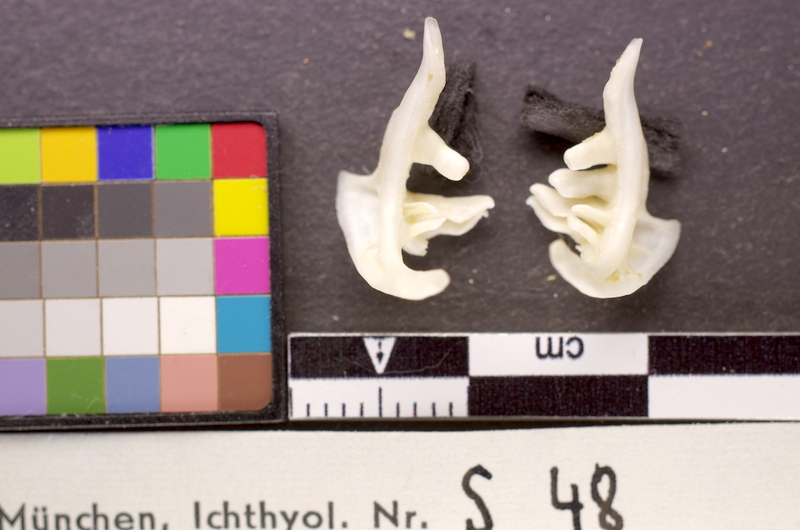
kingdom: Animalia
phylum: Chordata
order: Cypriniformes
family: Cyprinidae
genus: Blicca
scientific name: Blicca bjoerkna
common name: White bream
